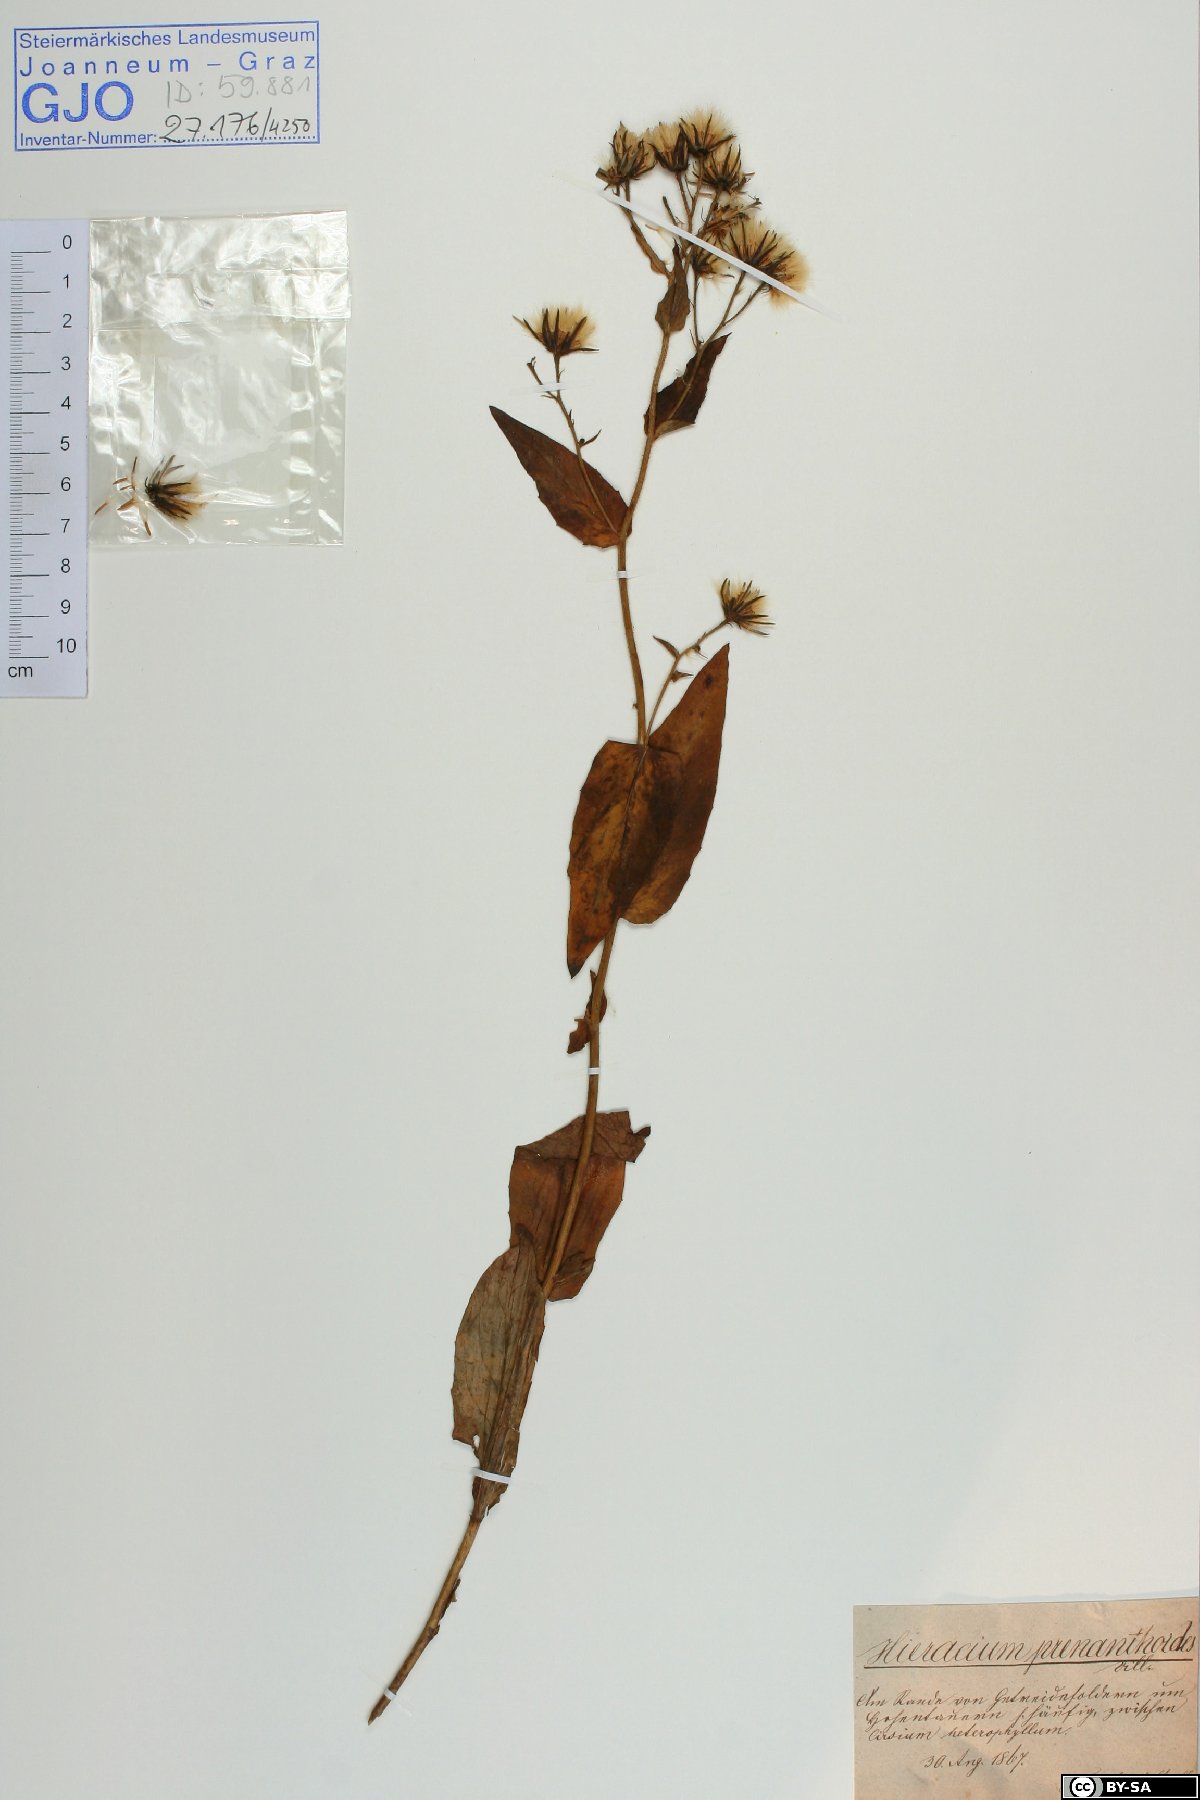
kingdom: Plantae
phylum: Tracheophyta
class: Magnoliopsida
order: Asterales
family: Asteraceae
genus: Hieracium
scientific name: Hieracium prenanthoides
